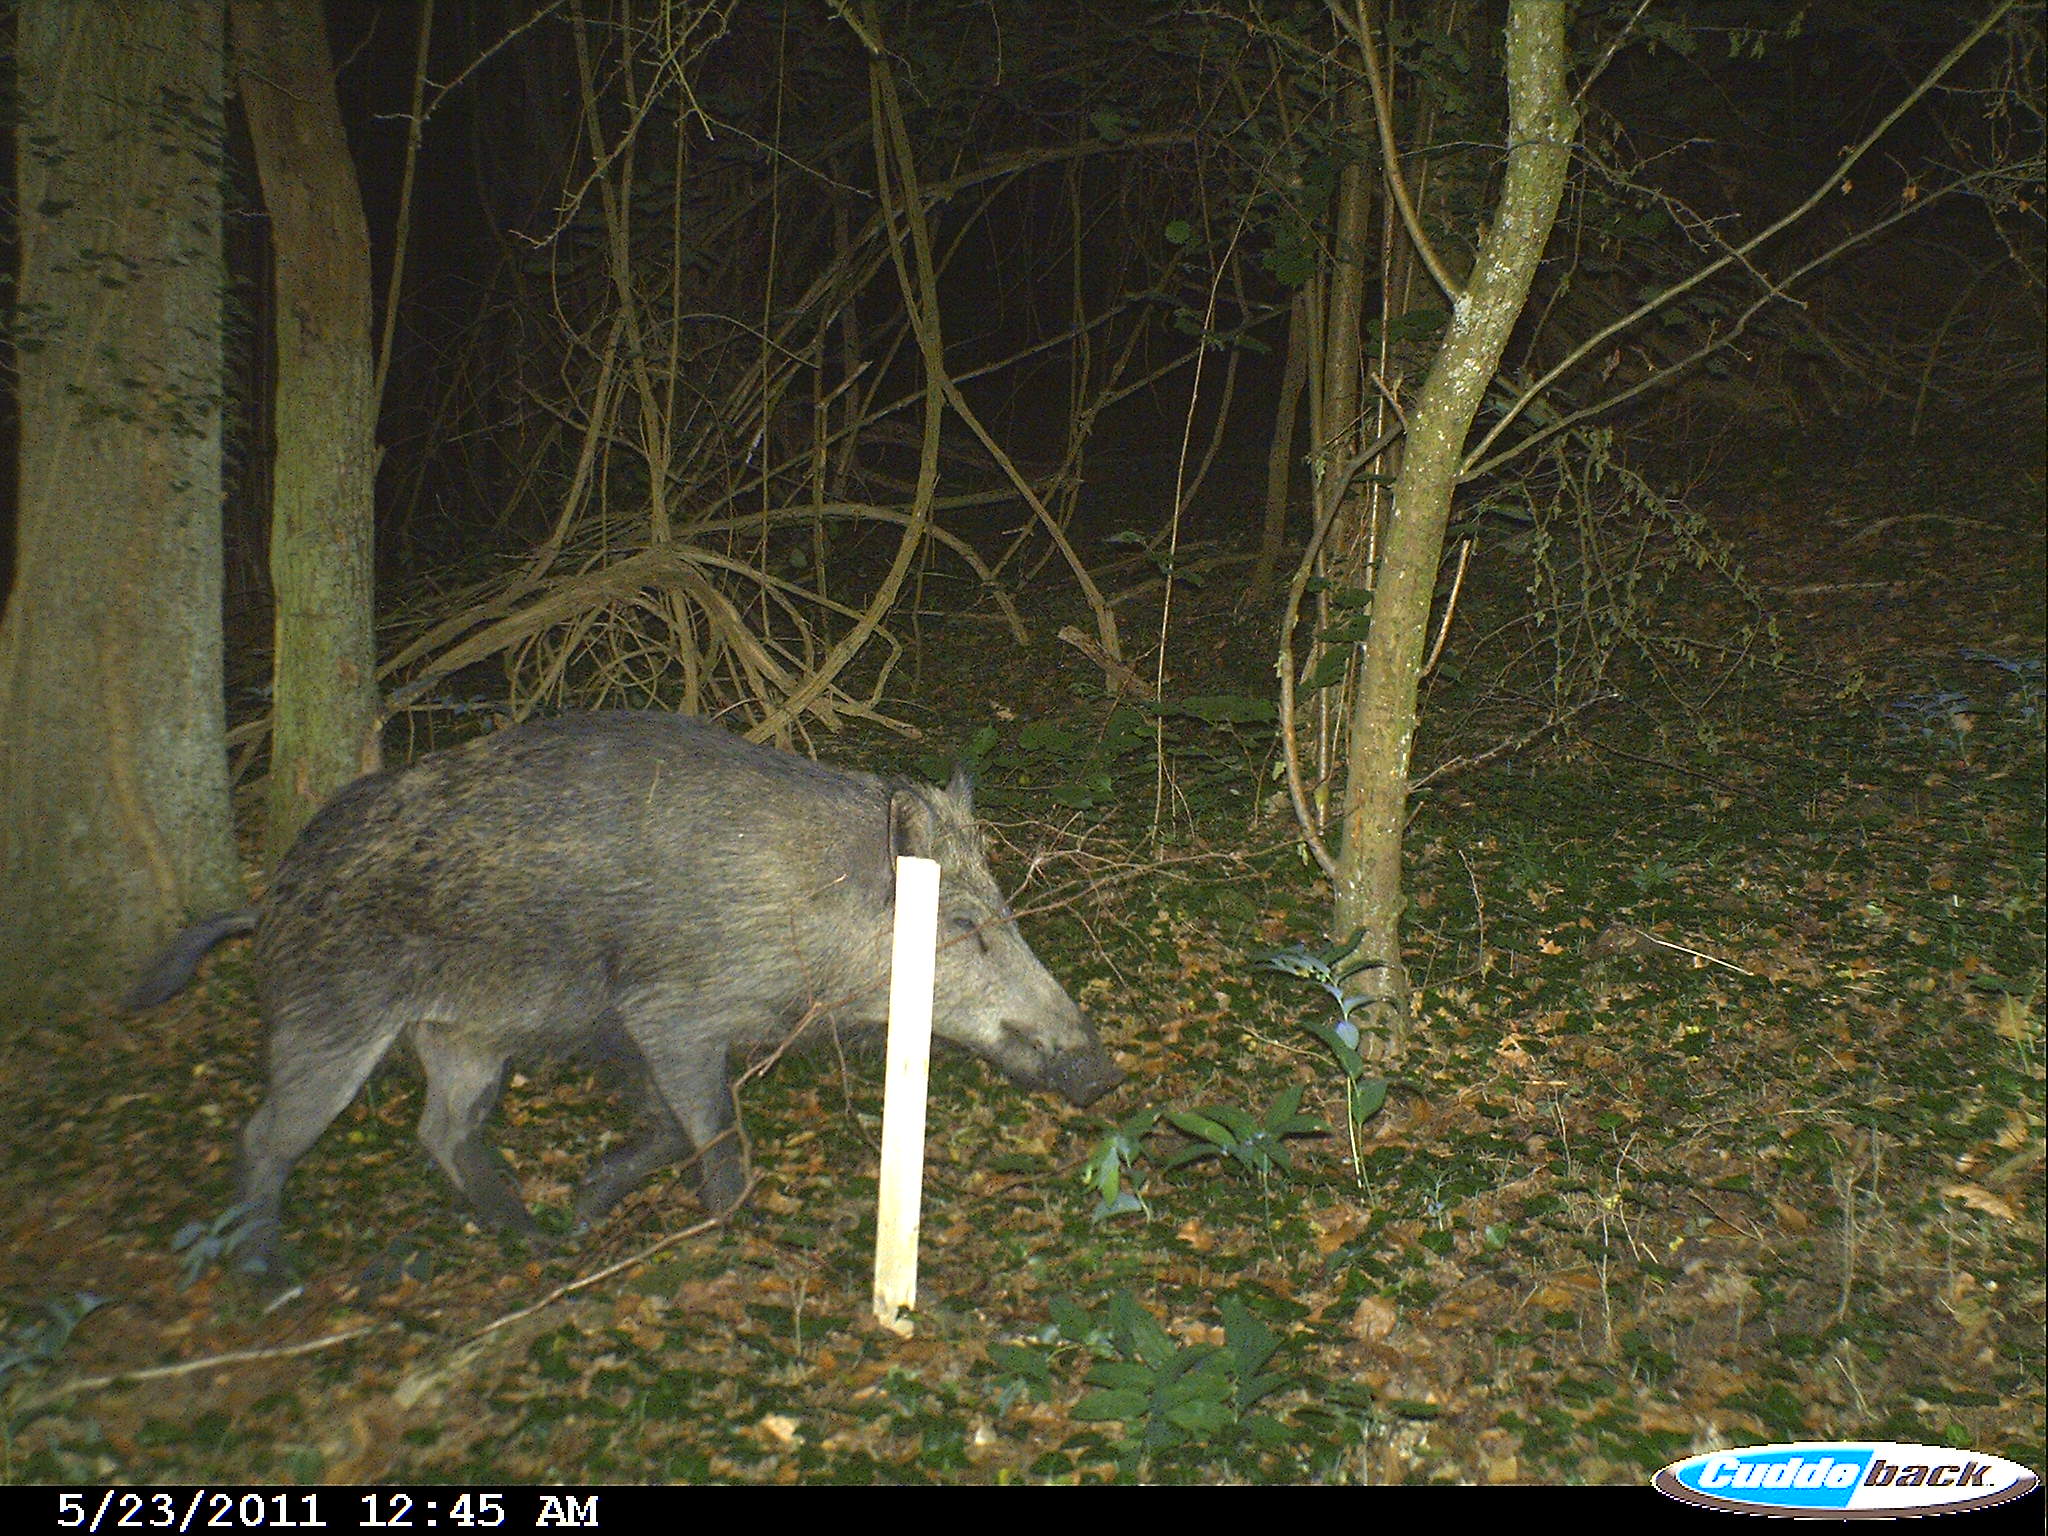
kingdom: Animalia
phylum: Chordata
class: Mammalia
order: Artiodactyla
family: Suidae
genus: Sus
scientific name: Sus scrofa
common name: Wild boar
